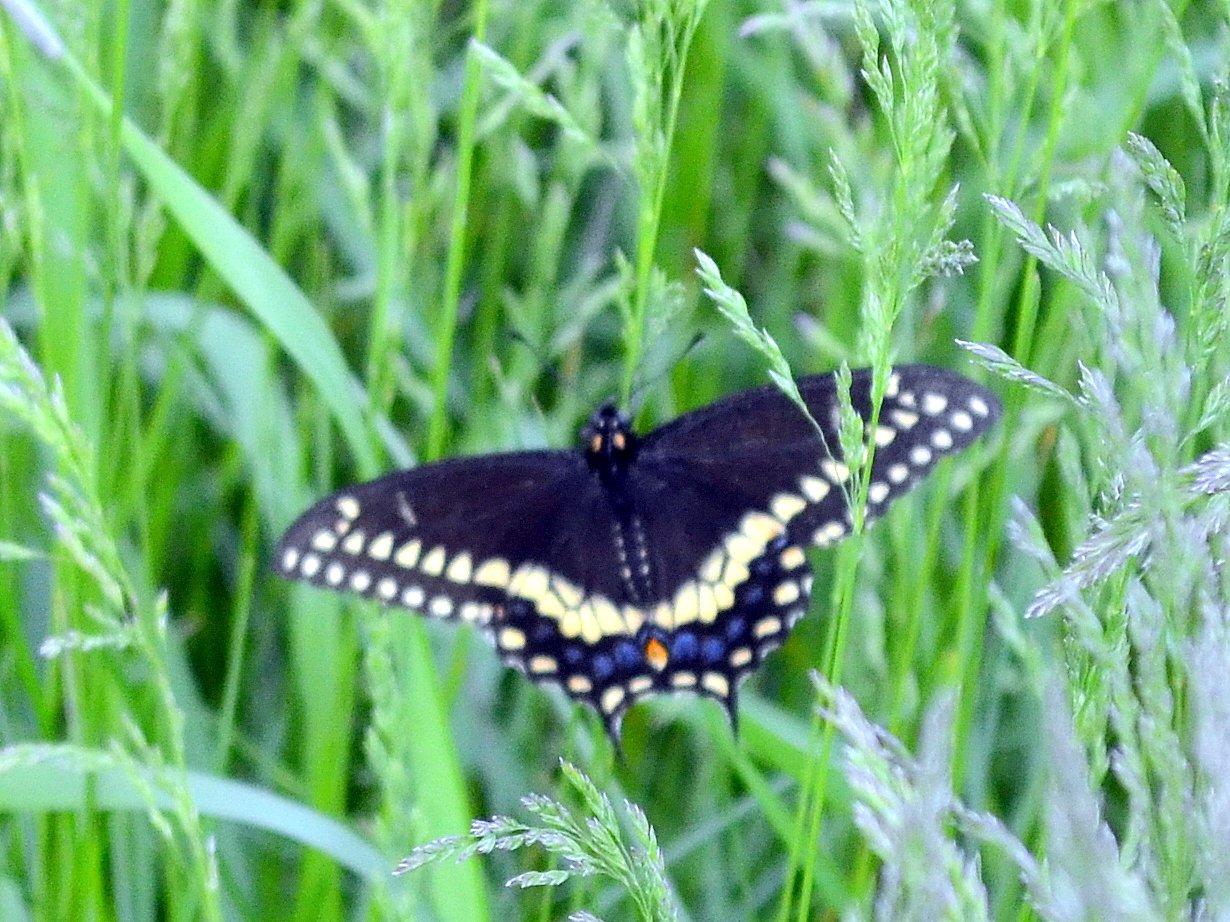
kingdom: Animalia
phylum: Arthropoda
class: Insecta
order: Lepidoptera
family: Papilionidae
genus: Papilio
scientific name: Papilio polyxenes
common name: Black Swallowtail
